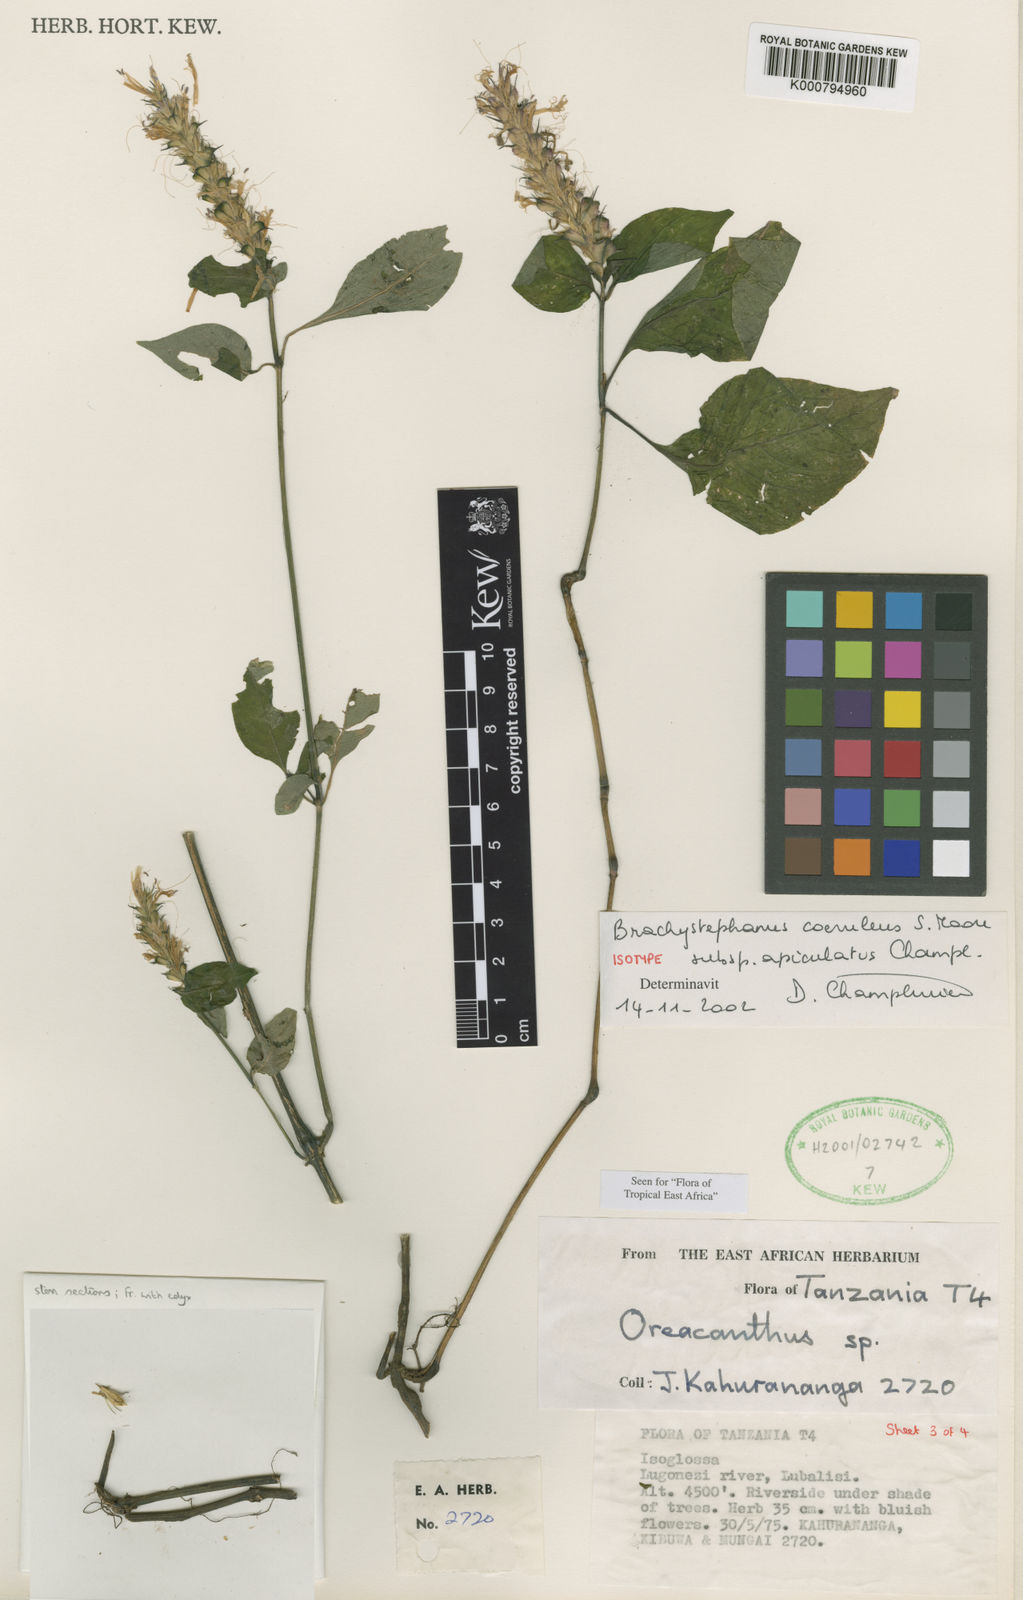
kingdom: Plantae
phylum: Tracheophyta
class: Magnoliopsida
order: Lamiales
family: Acanthaceae
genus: Brachystephanus
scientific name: Brachystephanus coeruleus
